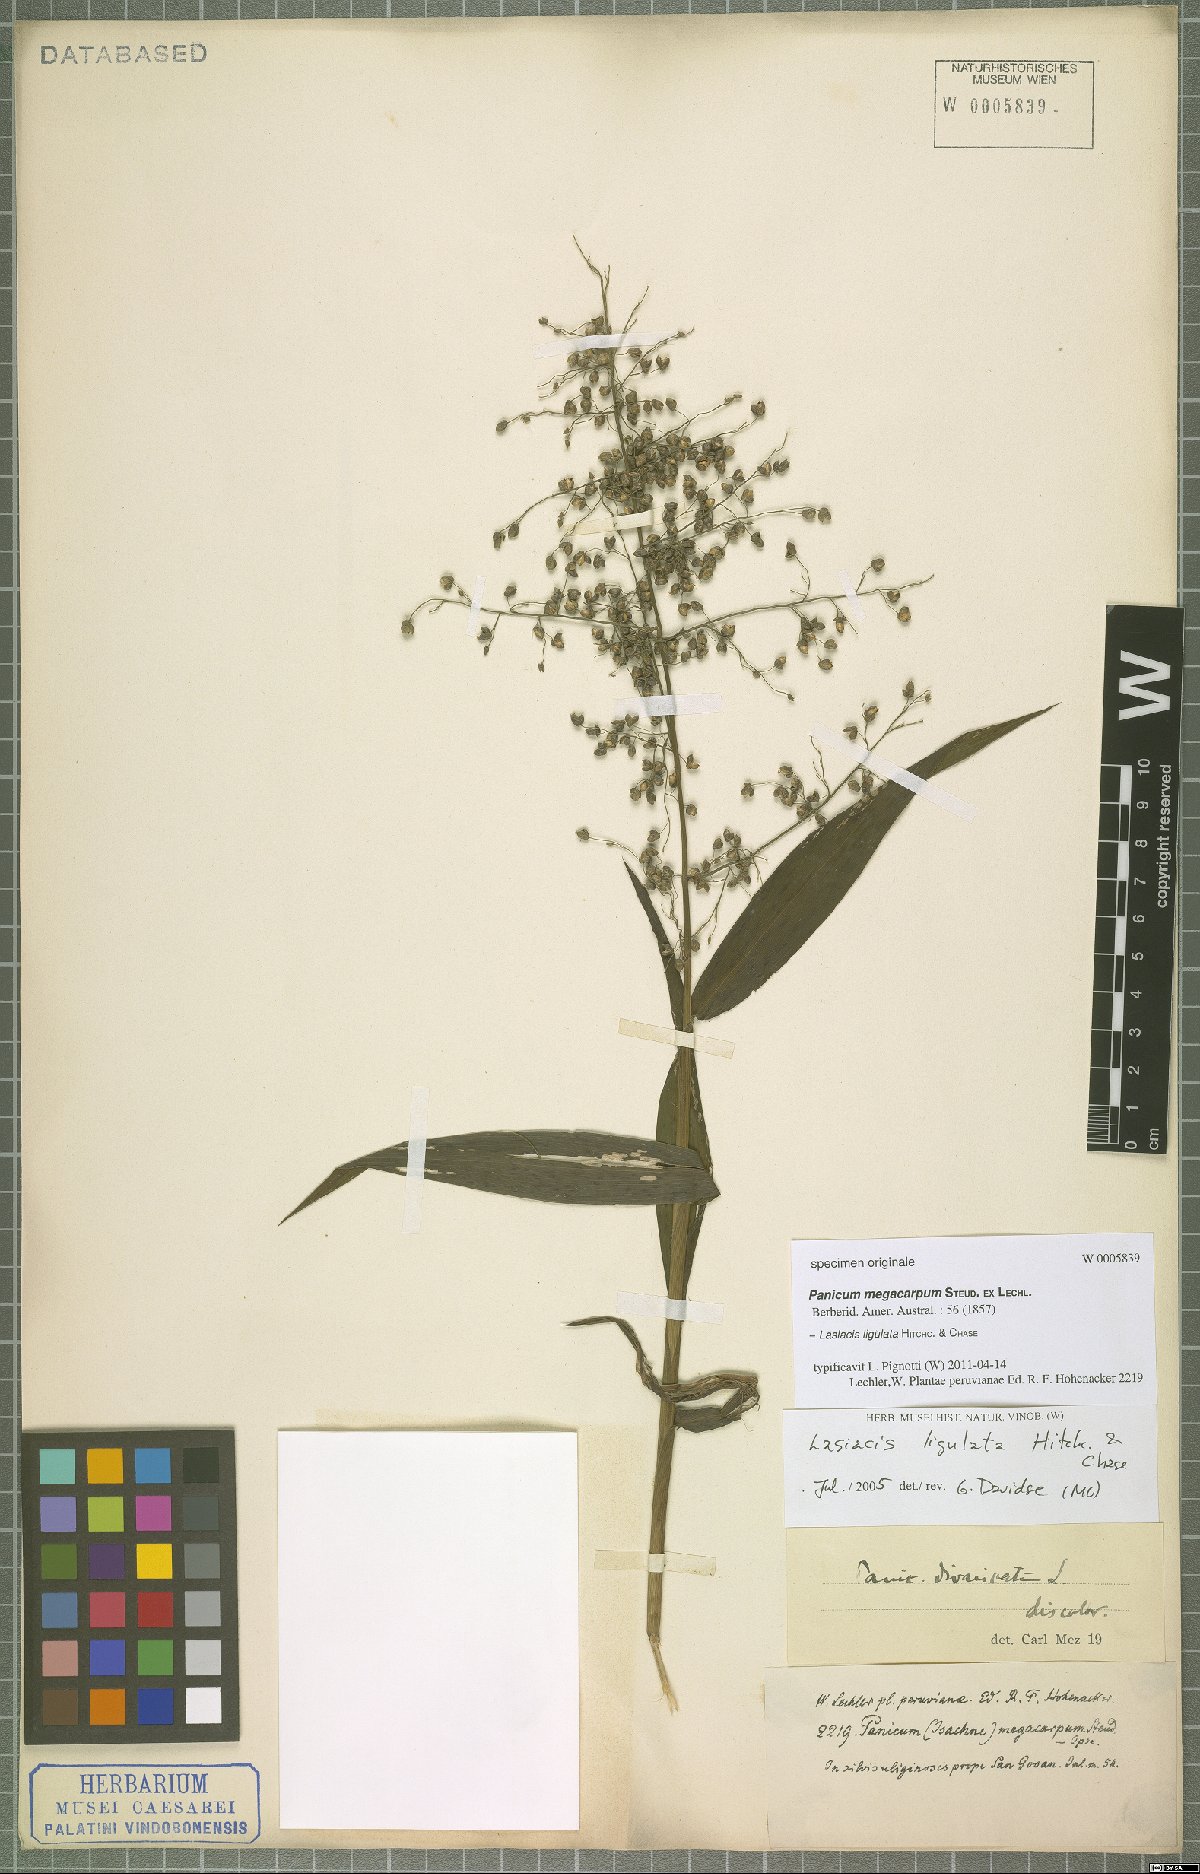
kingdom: Plantae
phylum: Tracheophyta
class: Liliopsida
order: Poales
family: Poaceae
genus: Lasiacis
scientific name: Lasiacis ligulata
